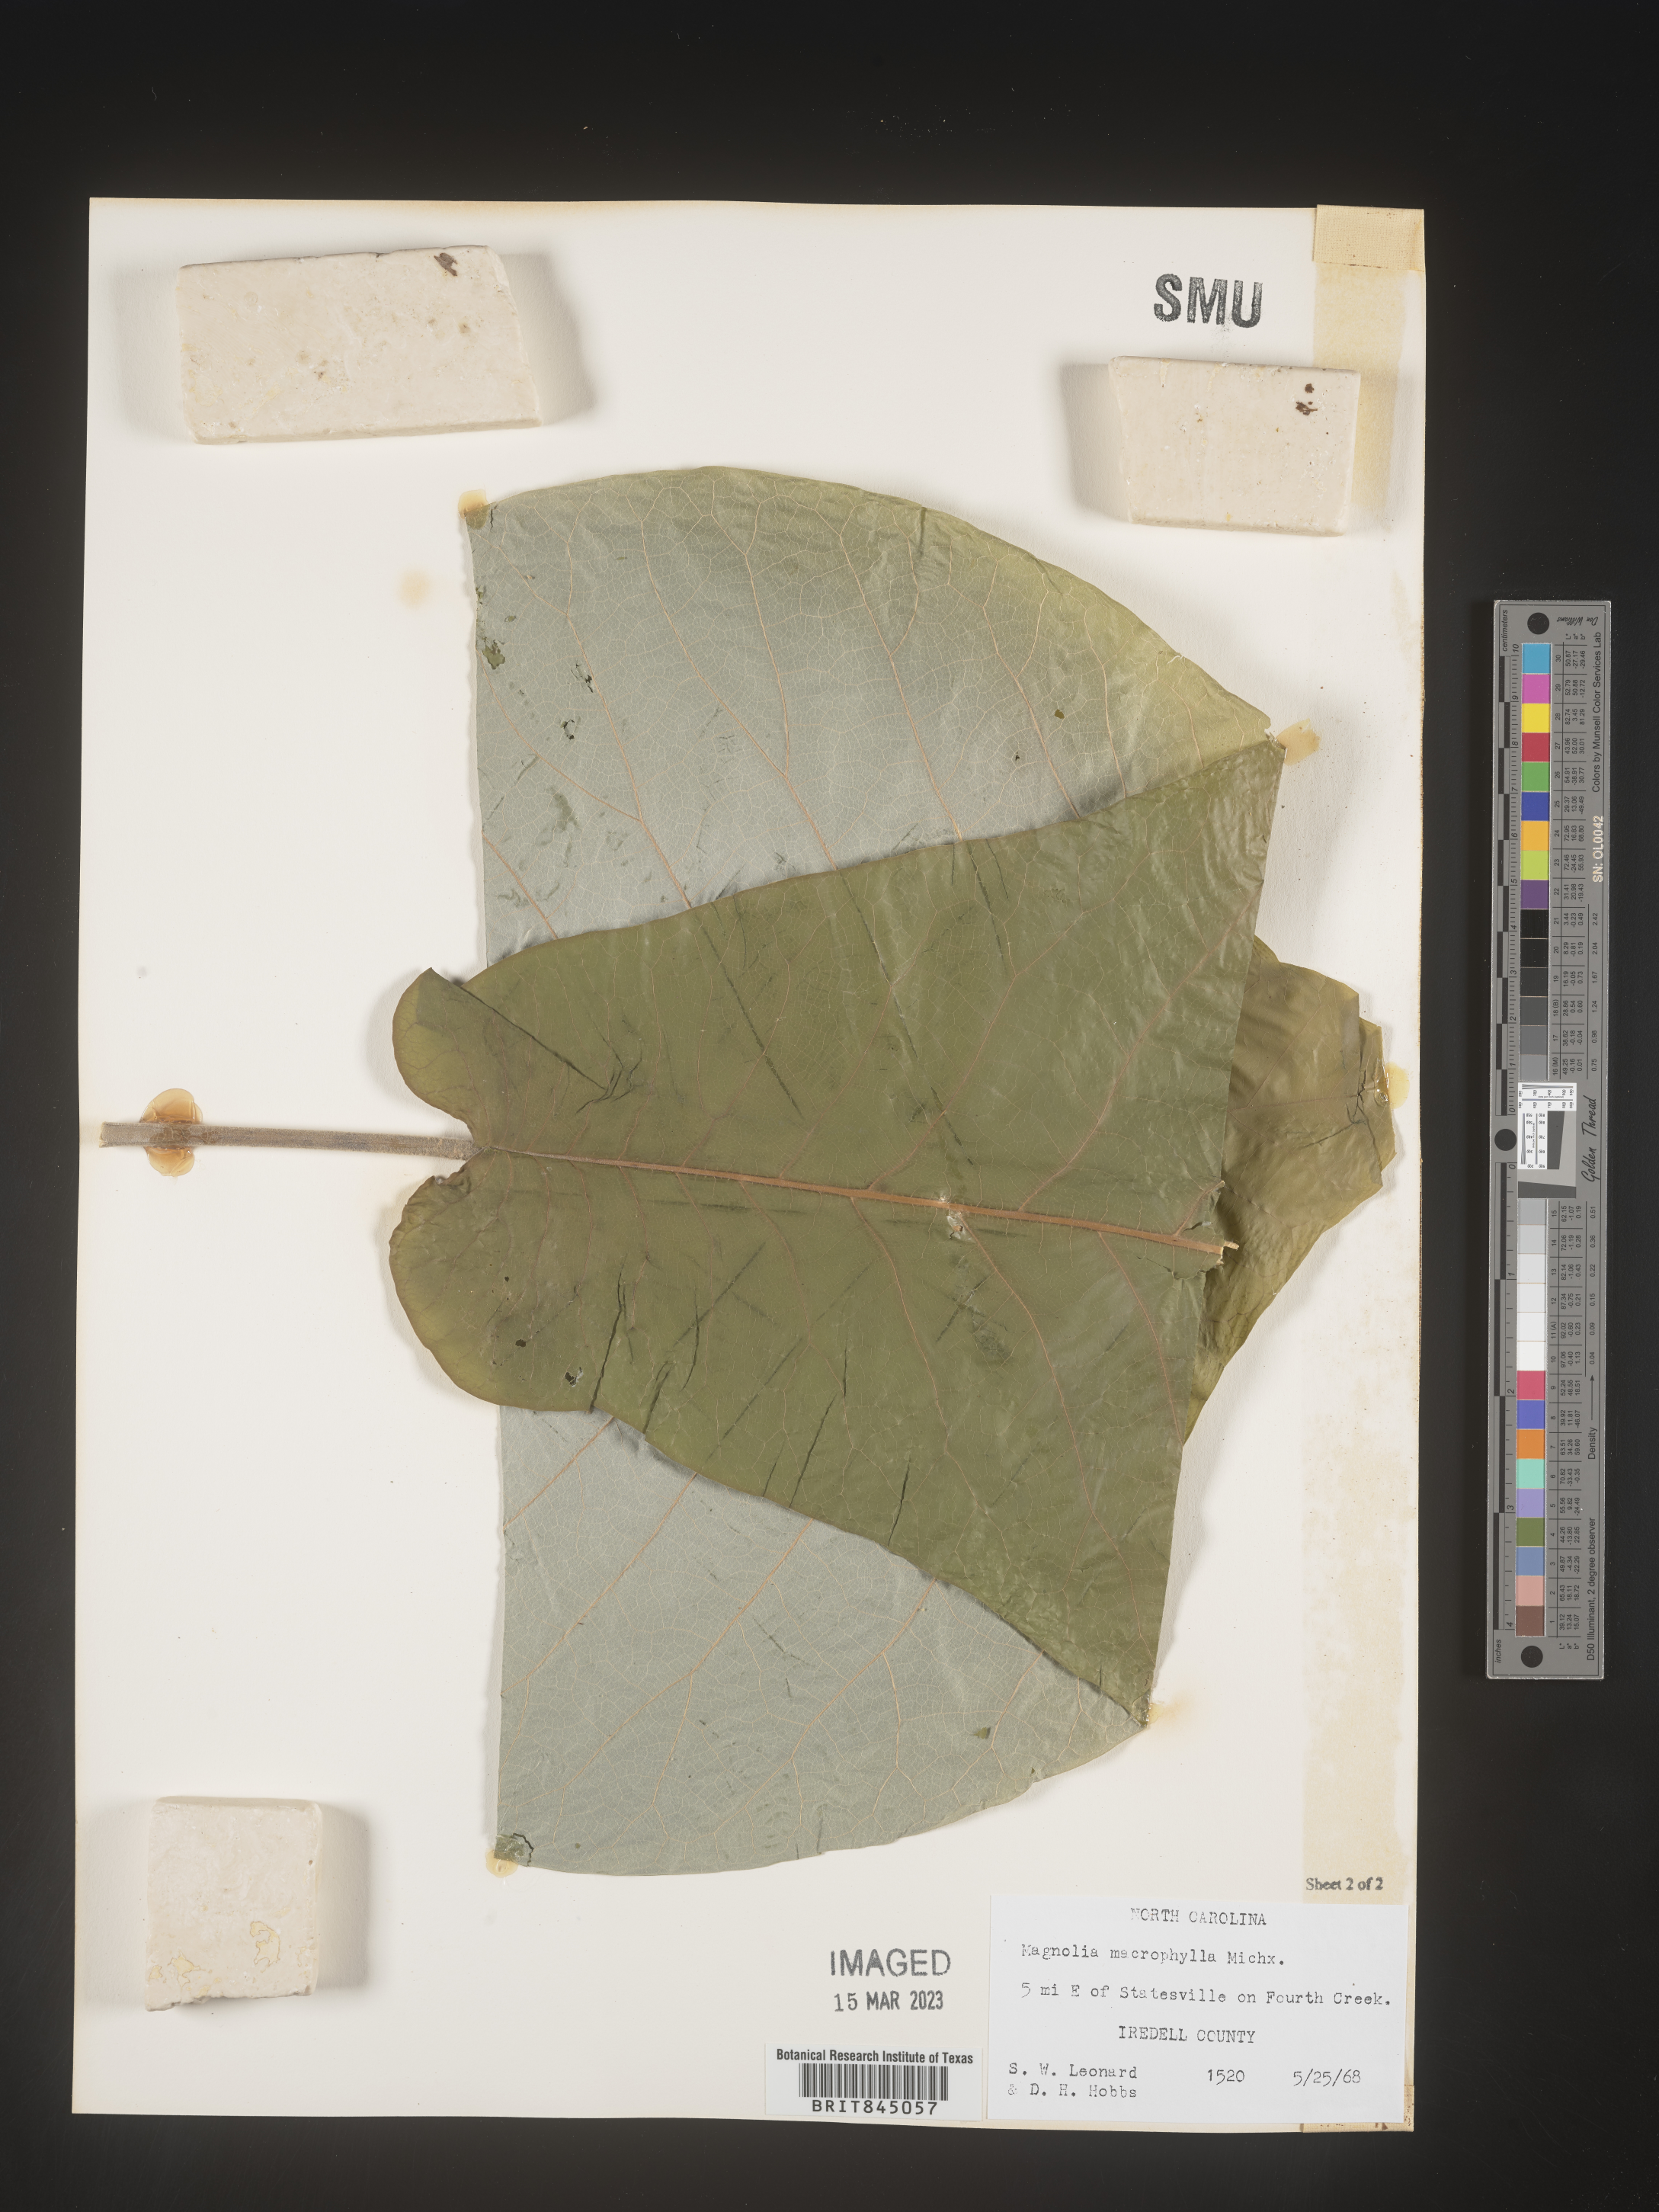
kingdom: Plantae
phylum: Tracheophyta
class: Magnoliopsida
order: Magnoliales
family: Magnoliaceae
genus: Magnolia
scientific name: Magnolia macrophylla
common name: Big-leaf magnolia
